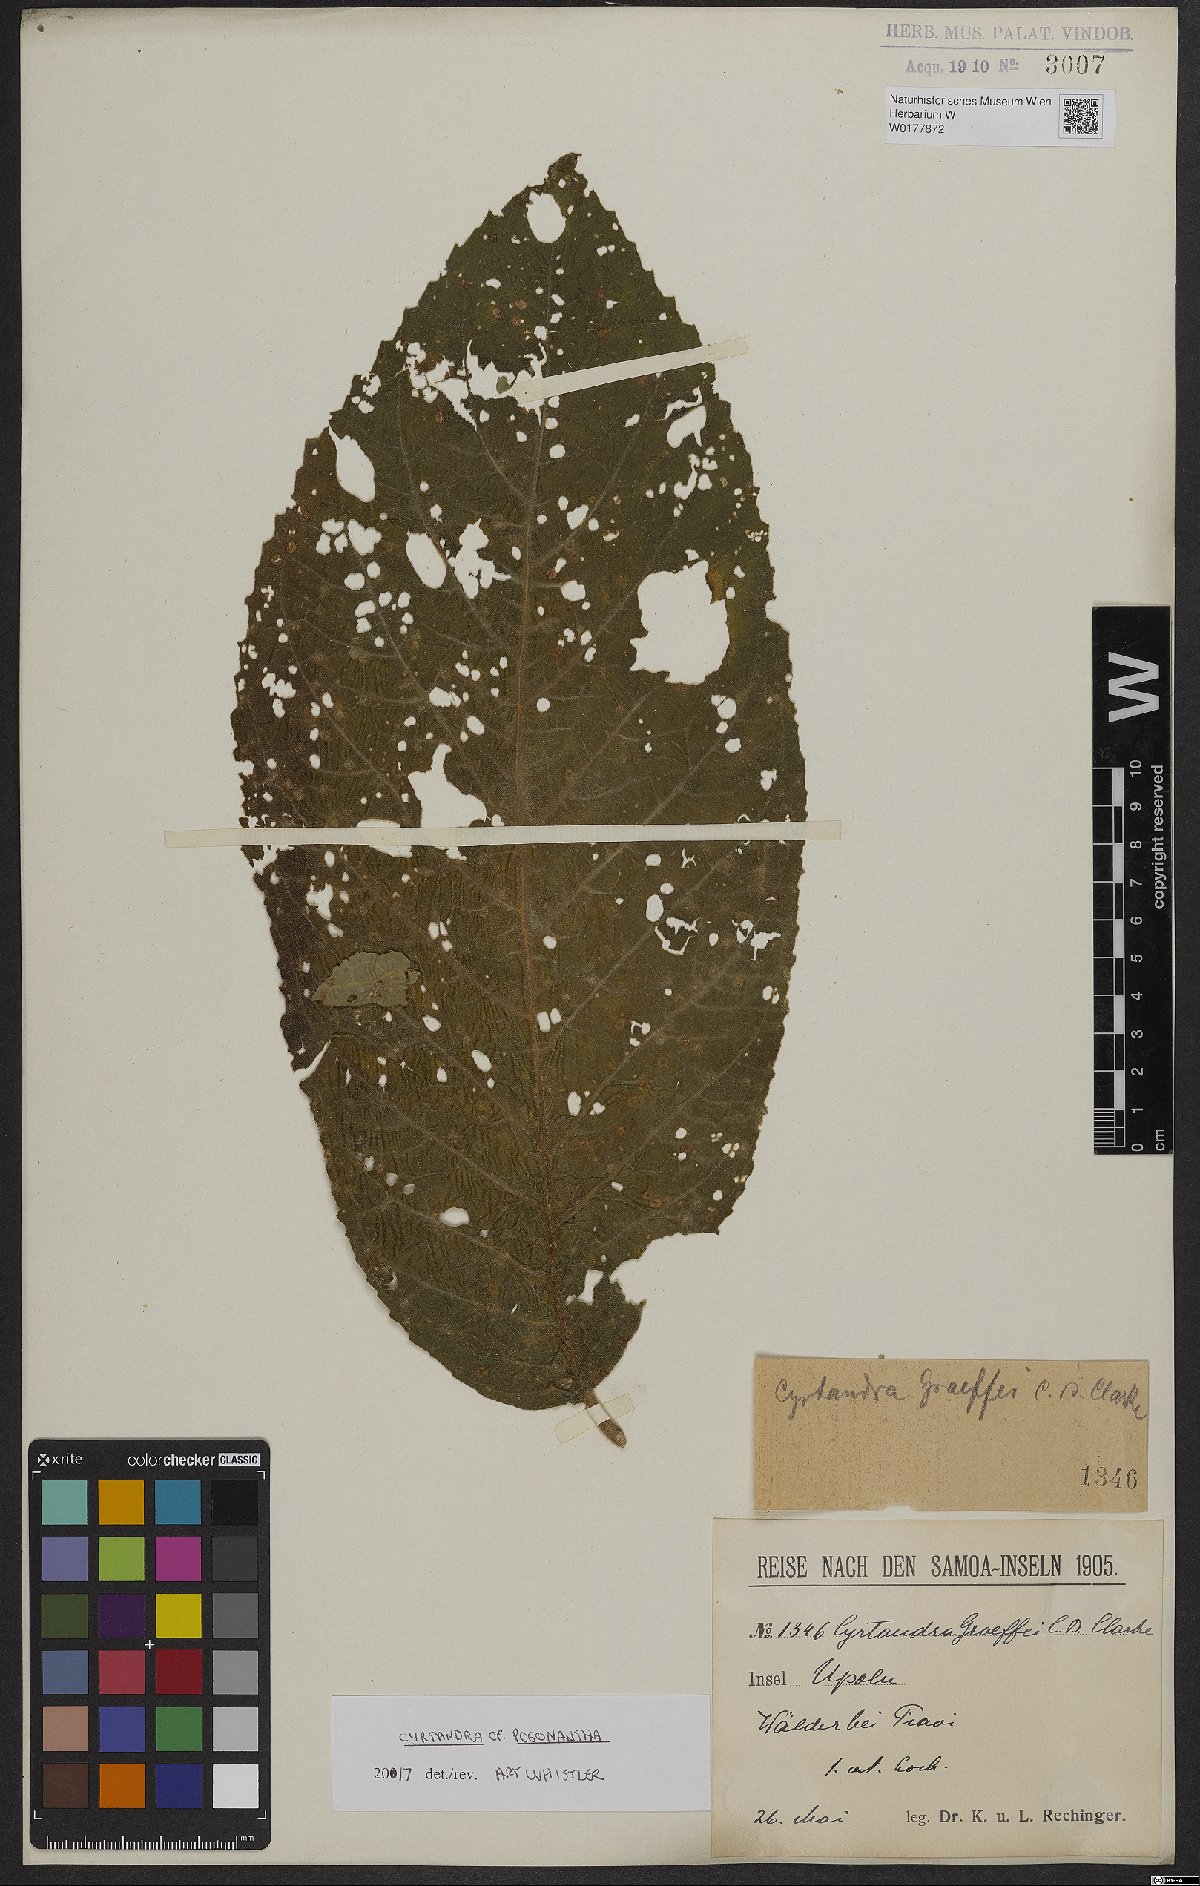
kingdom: Plantae
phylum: Tracheophyta
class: Magnoliopsida
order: Lamiales
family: Gesneriaceae
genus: Cyrtandra
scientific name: Cyrtandra pogonantha
